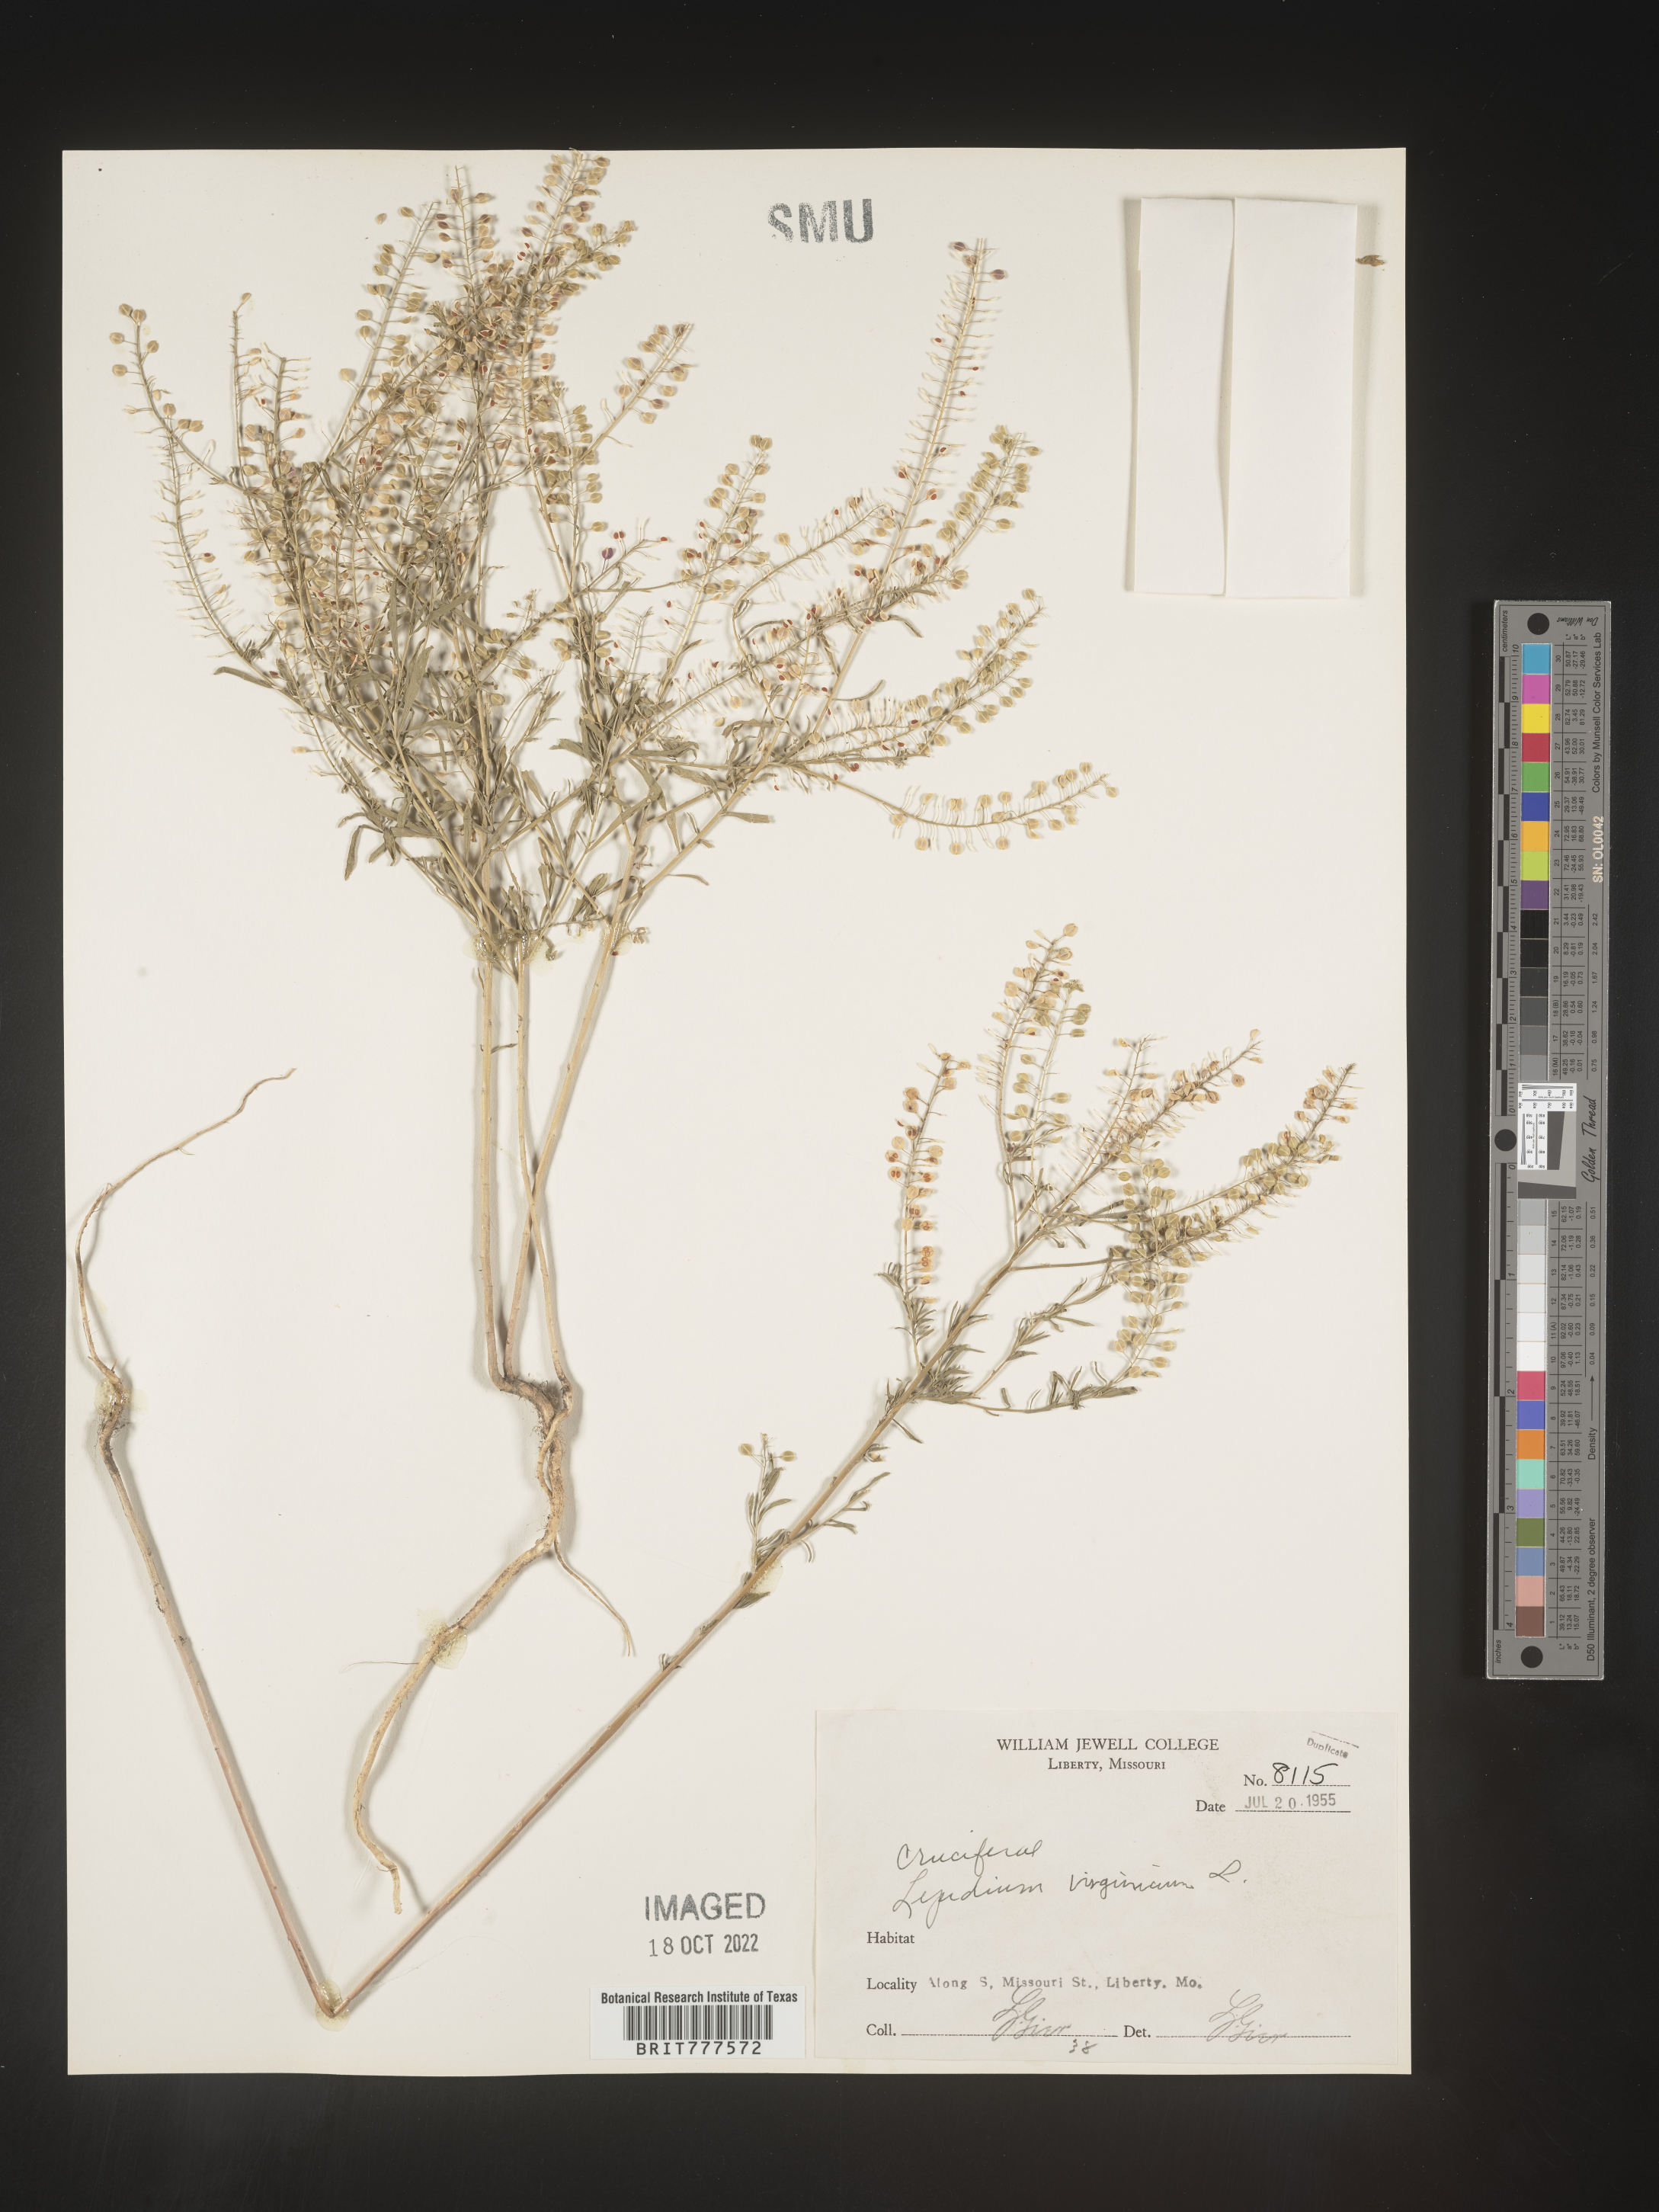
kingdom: Plantae
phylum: Tracheophyta
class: Magnoliopsida
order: Brassicales
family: Brassicaceae
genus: Lepidium
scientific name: Lepidium virginicum
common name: Least pepperwort
